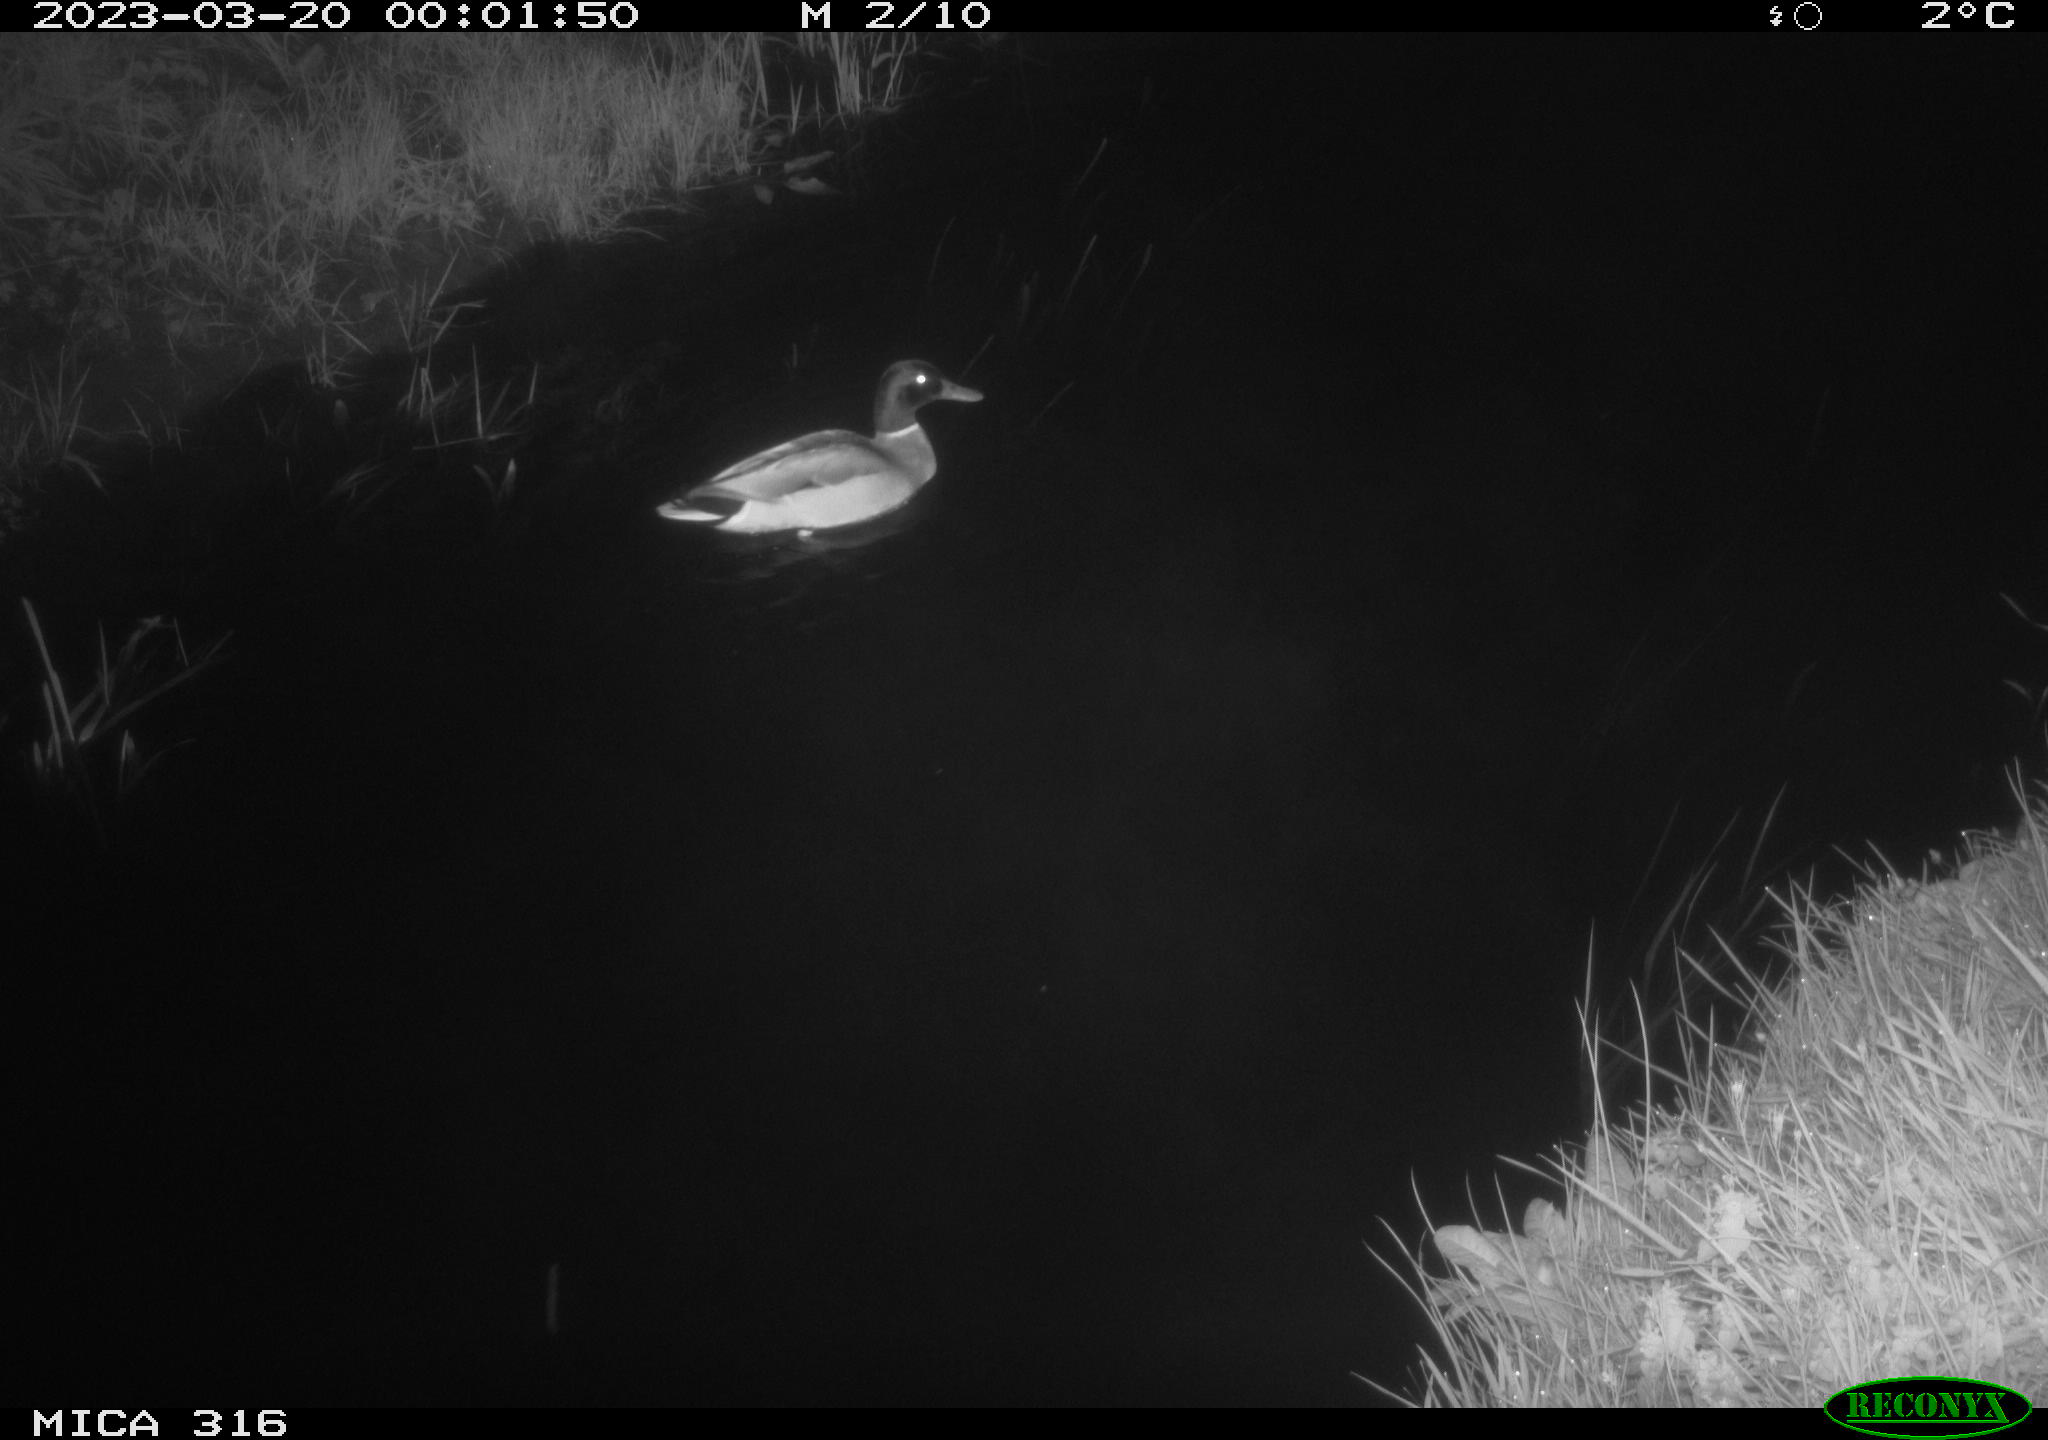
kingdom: Animalia
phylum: Chordata
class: Aves
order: Anseriformes
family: Anatidae
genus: Anas
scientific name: Anas
